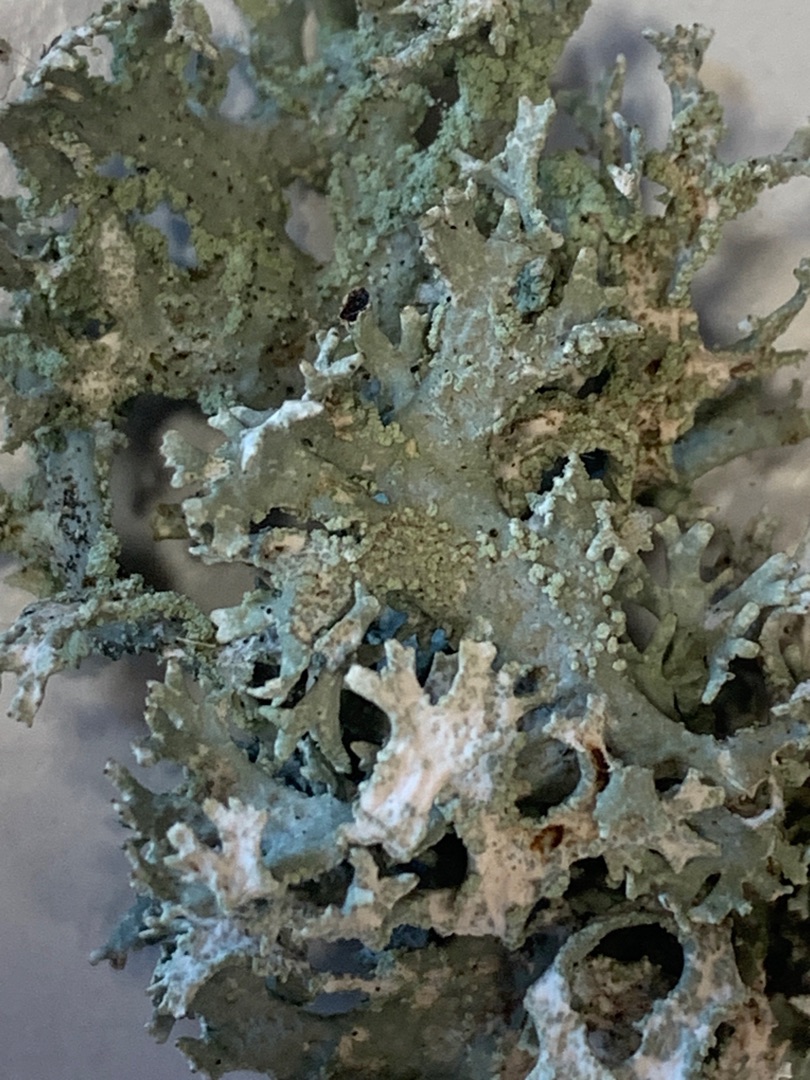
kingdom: Fungi
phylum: Ascomycota
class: Lecanoromycetes
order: Lecanorales
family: Parmeliaceae
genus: Evernia
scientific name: Evernia prunastri
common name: Almindelig slåenlav
